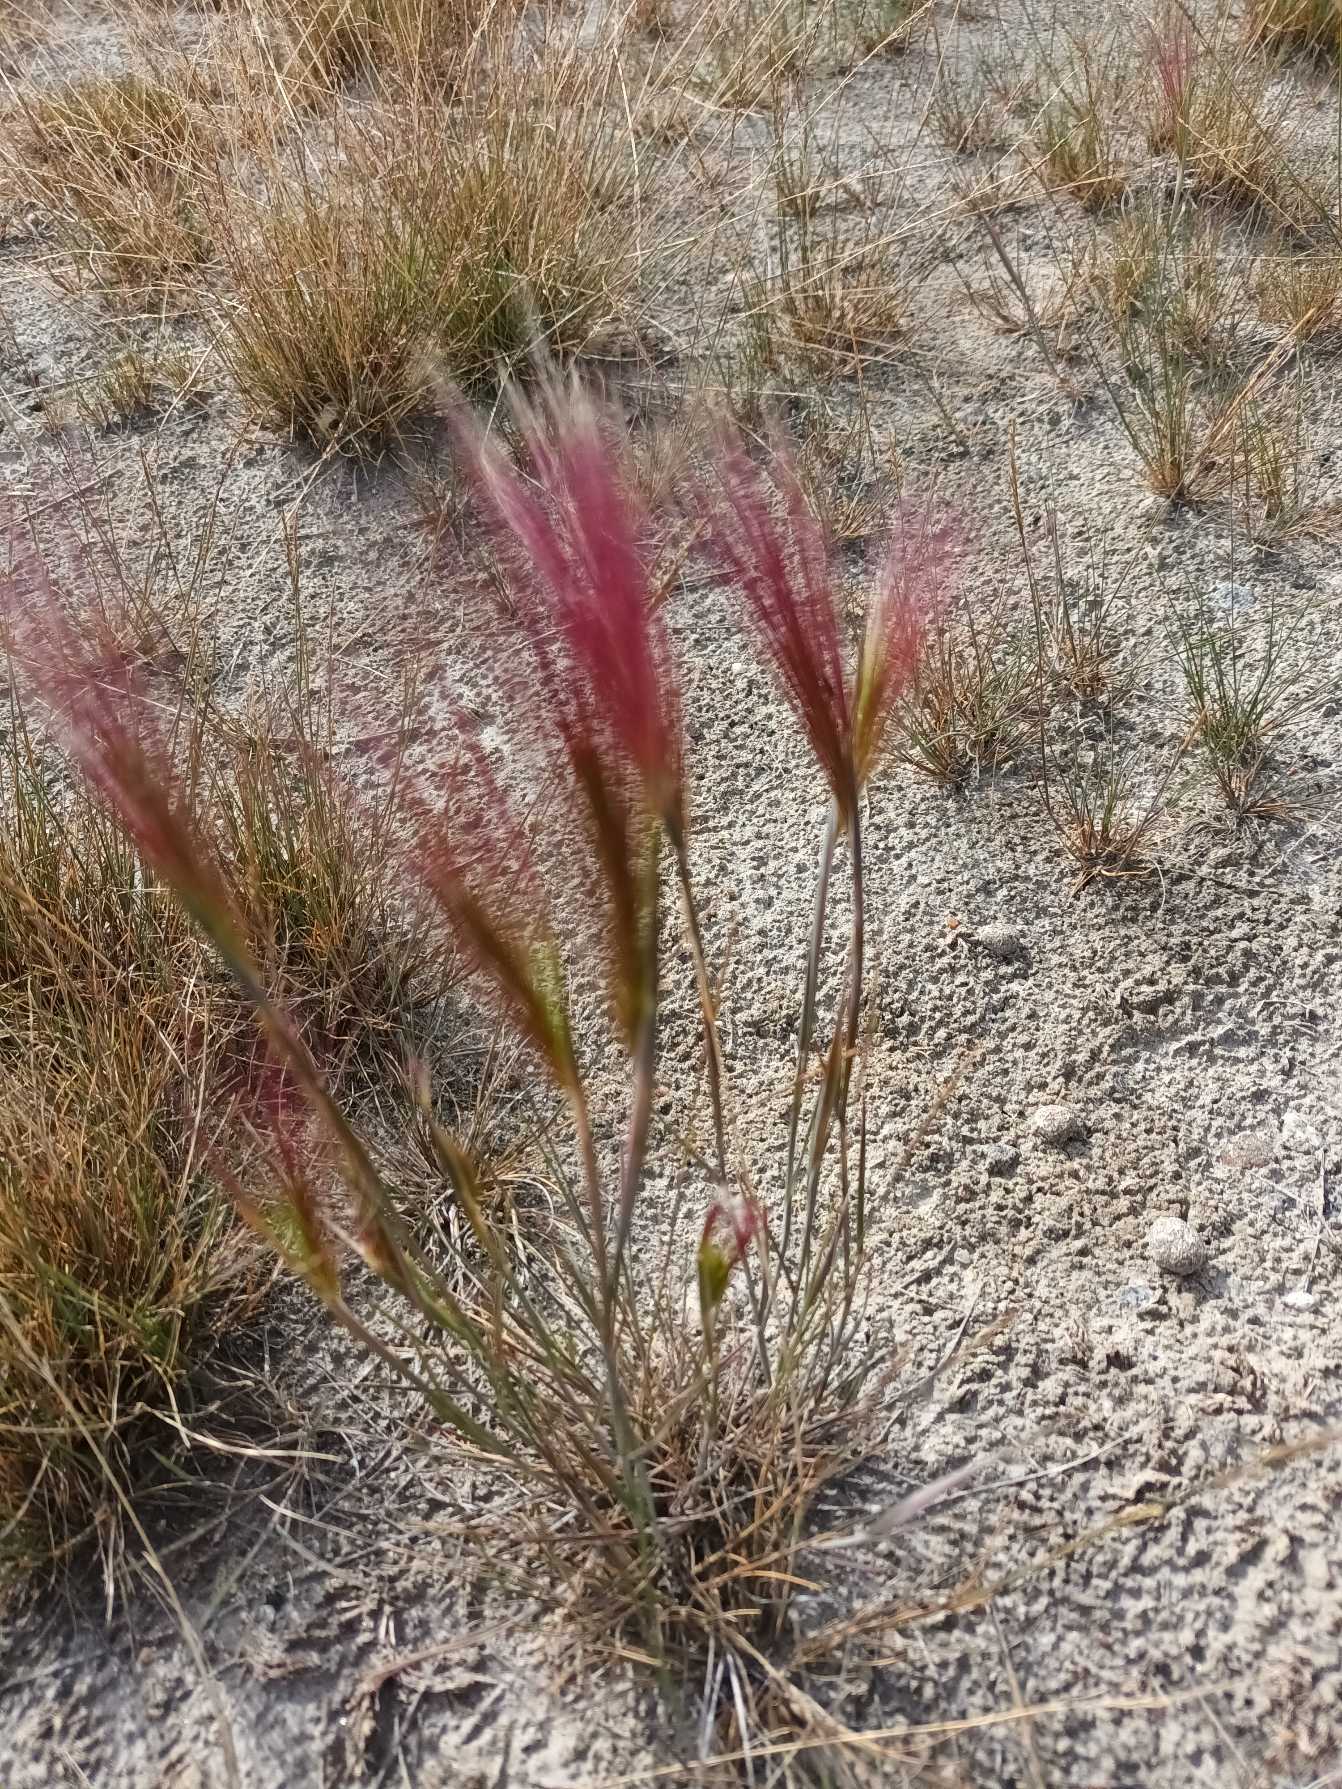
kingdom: Plantae
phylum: Tracheophyta
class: Liliopsida
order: Poales
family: Poaceae
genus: Hordeum
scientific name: Hordeum jubatum
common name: Egernhale-byg
